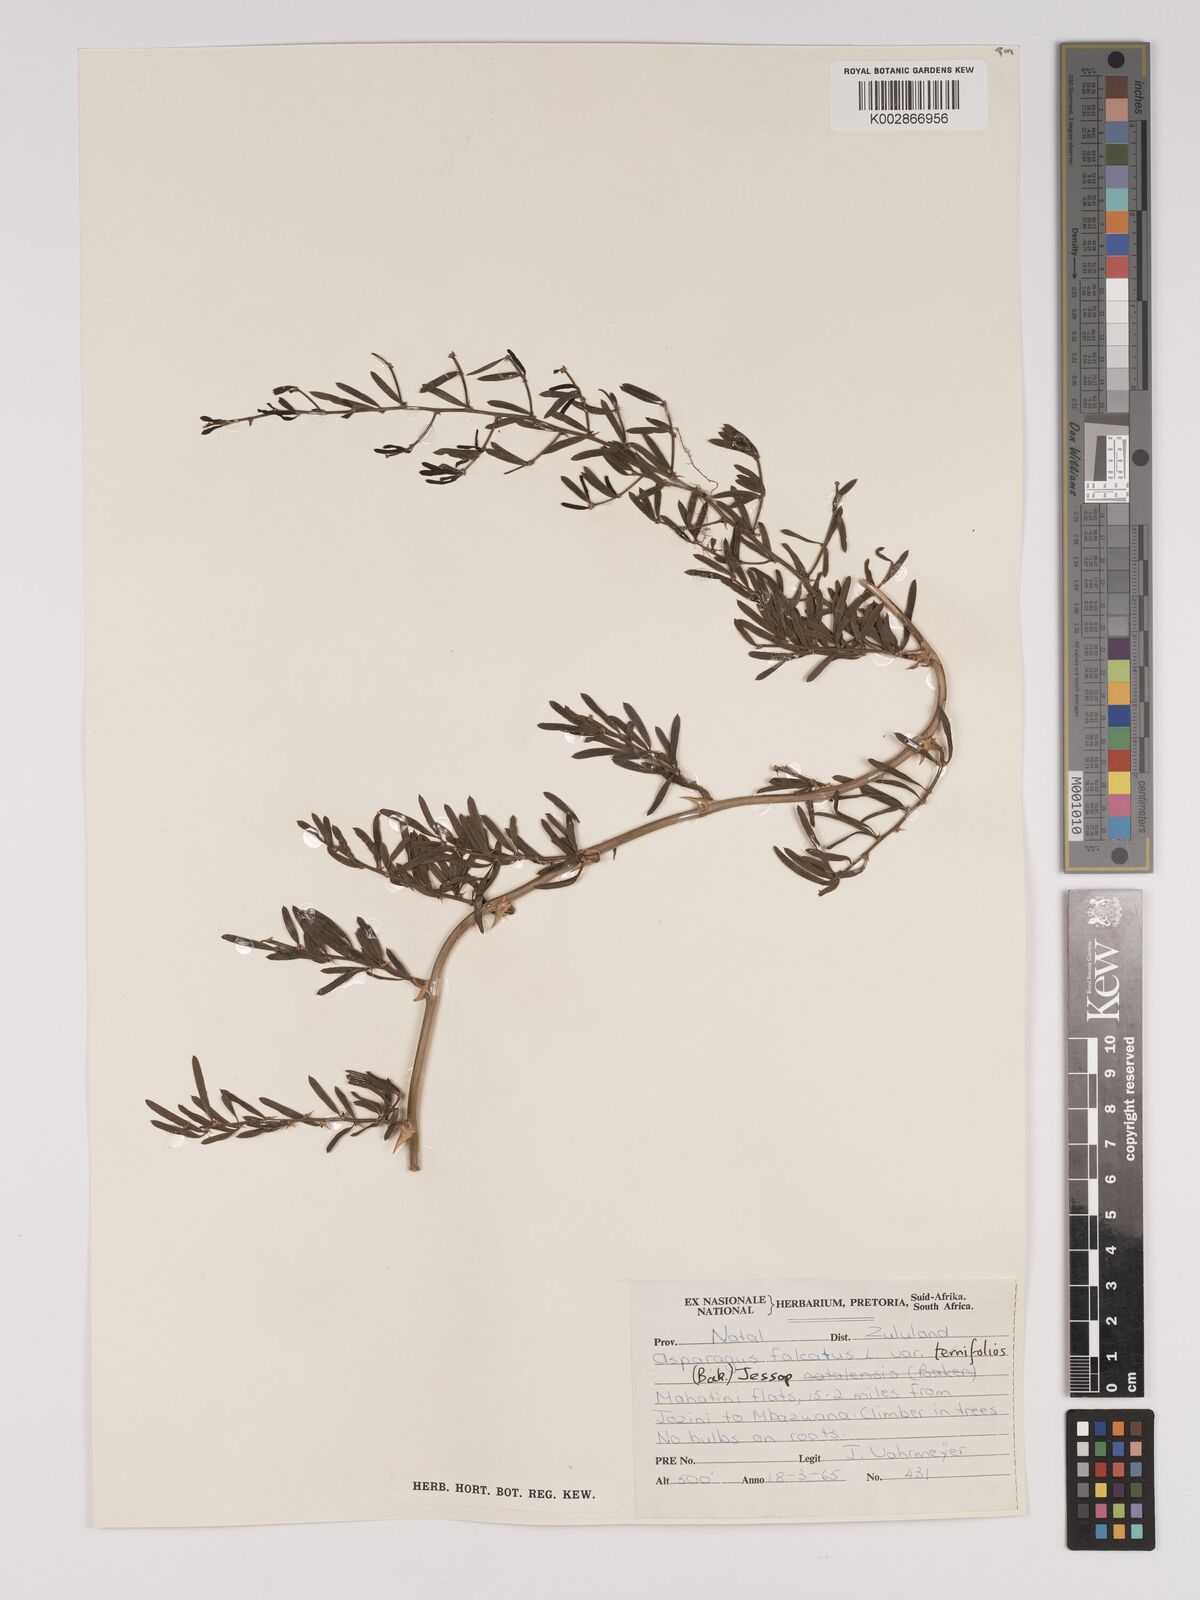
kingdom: Plantae
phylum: Tracheophyta
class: Liliopsida
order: Asparagales
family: Asparagaceae
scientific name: Asparagaceae
